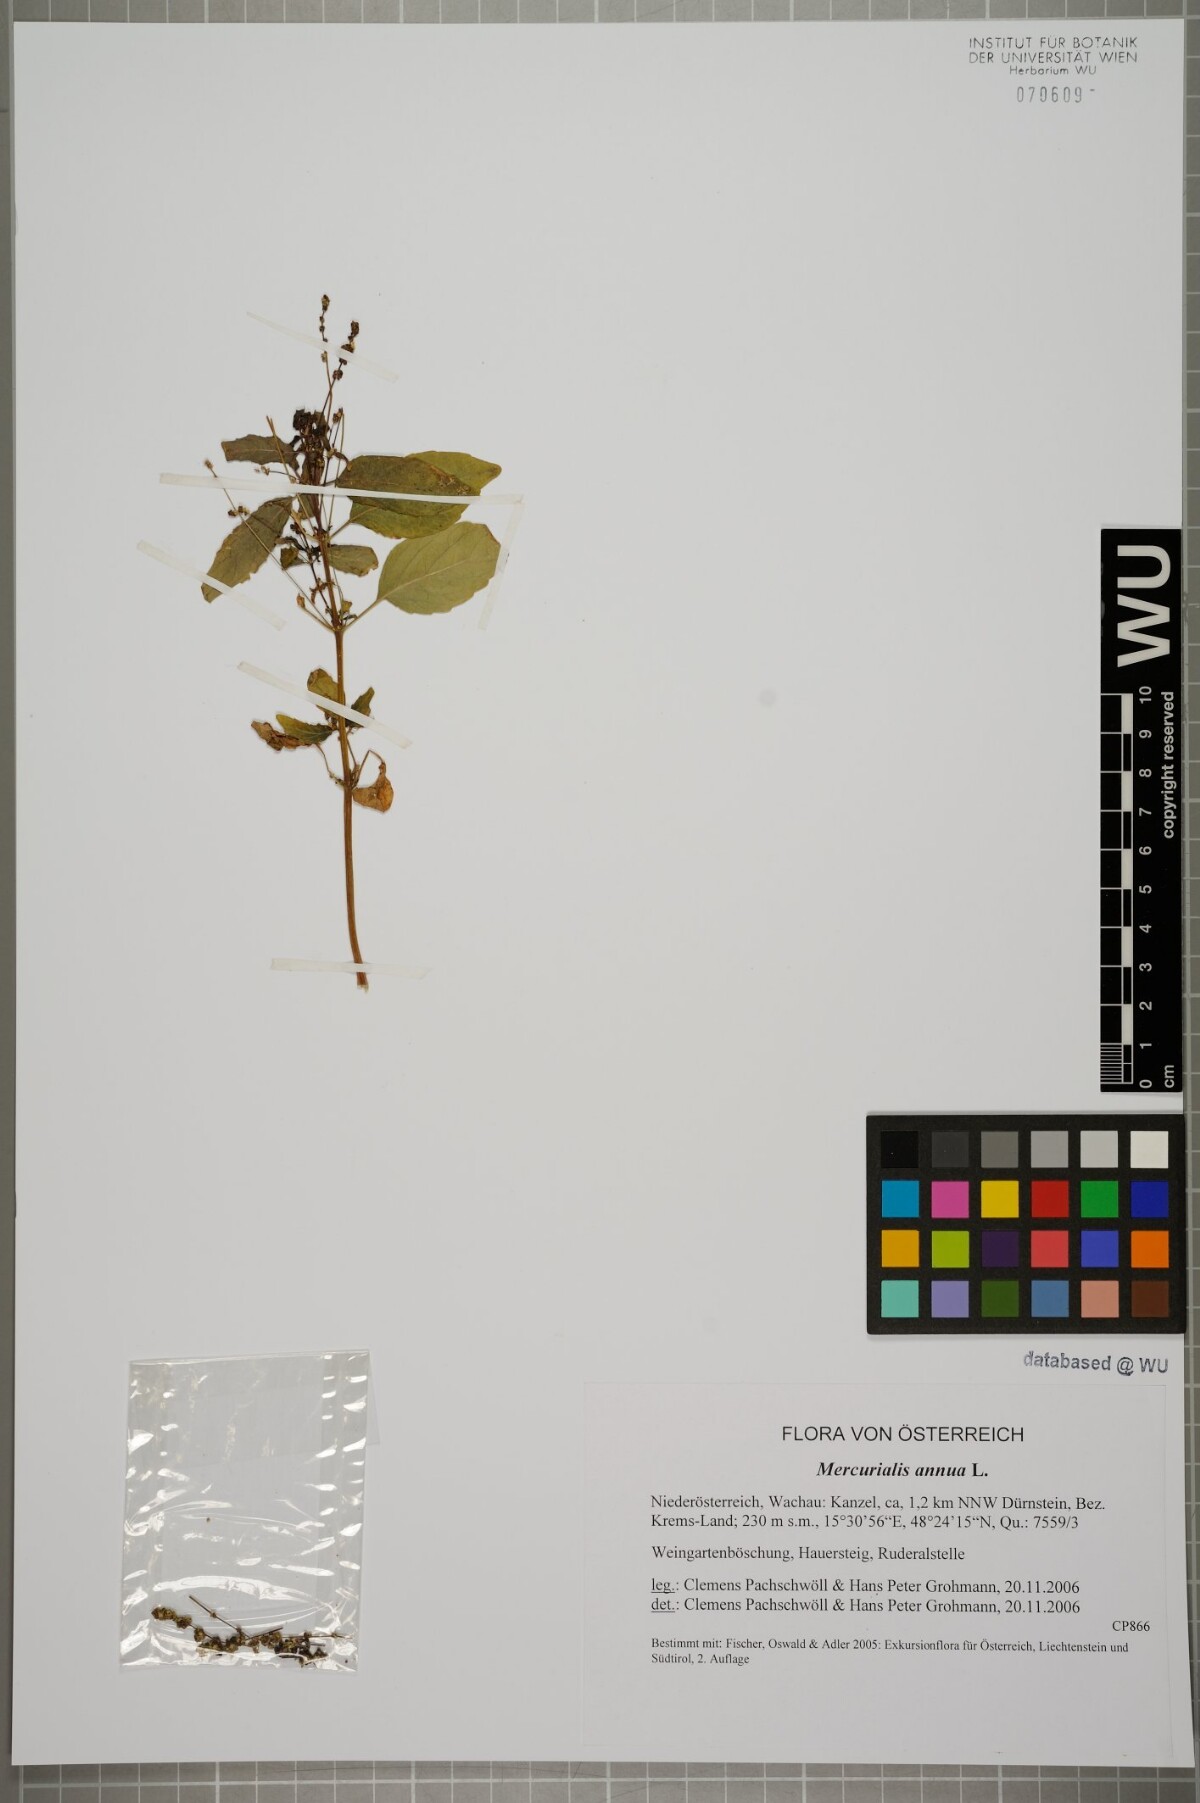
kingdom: Plantae
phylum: Tracheophyta
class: Magnoliopsida
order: Malpighiales
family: Euphorbiaceae
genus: Mercurialis
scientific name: Mercurialis annua
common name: Annual mercury
